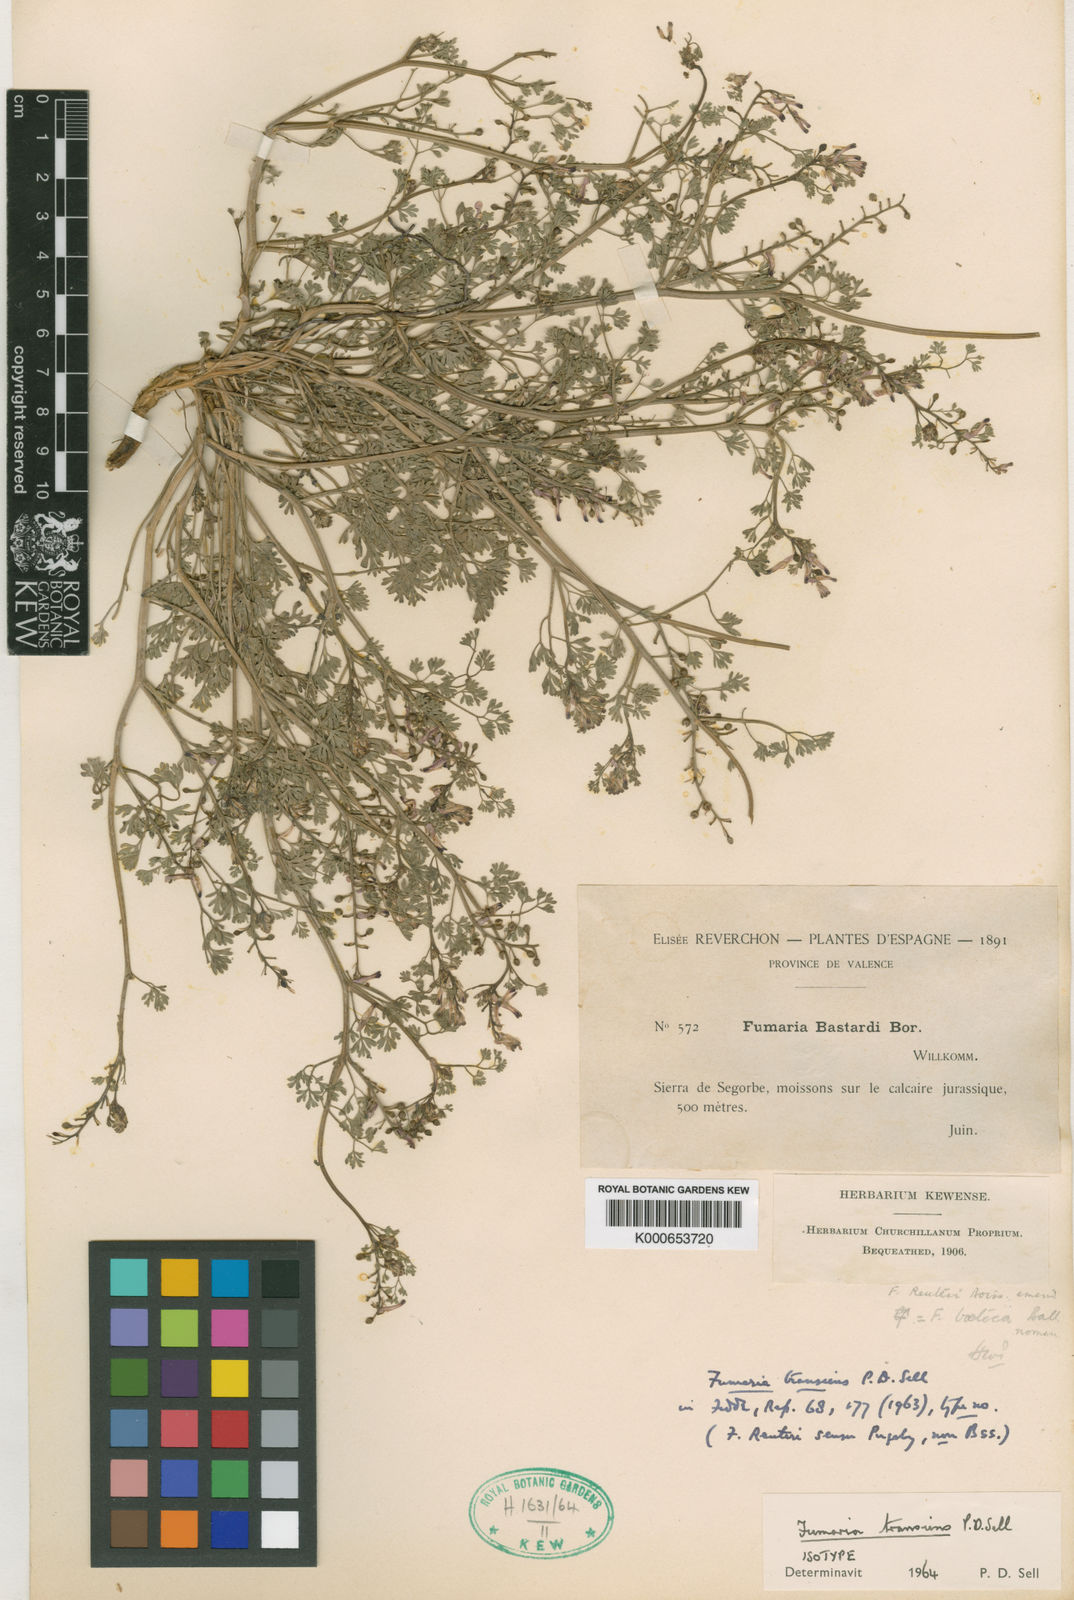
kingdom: Plantae
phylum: Tracheophyta
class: Magnoliopsida
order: Ranunculales
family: Papaveraceae
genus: Fumaria
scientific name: Fumaria petteri
